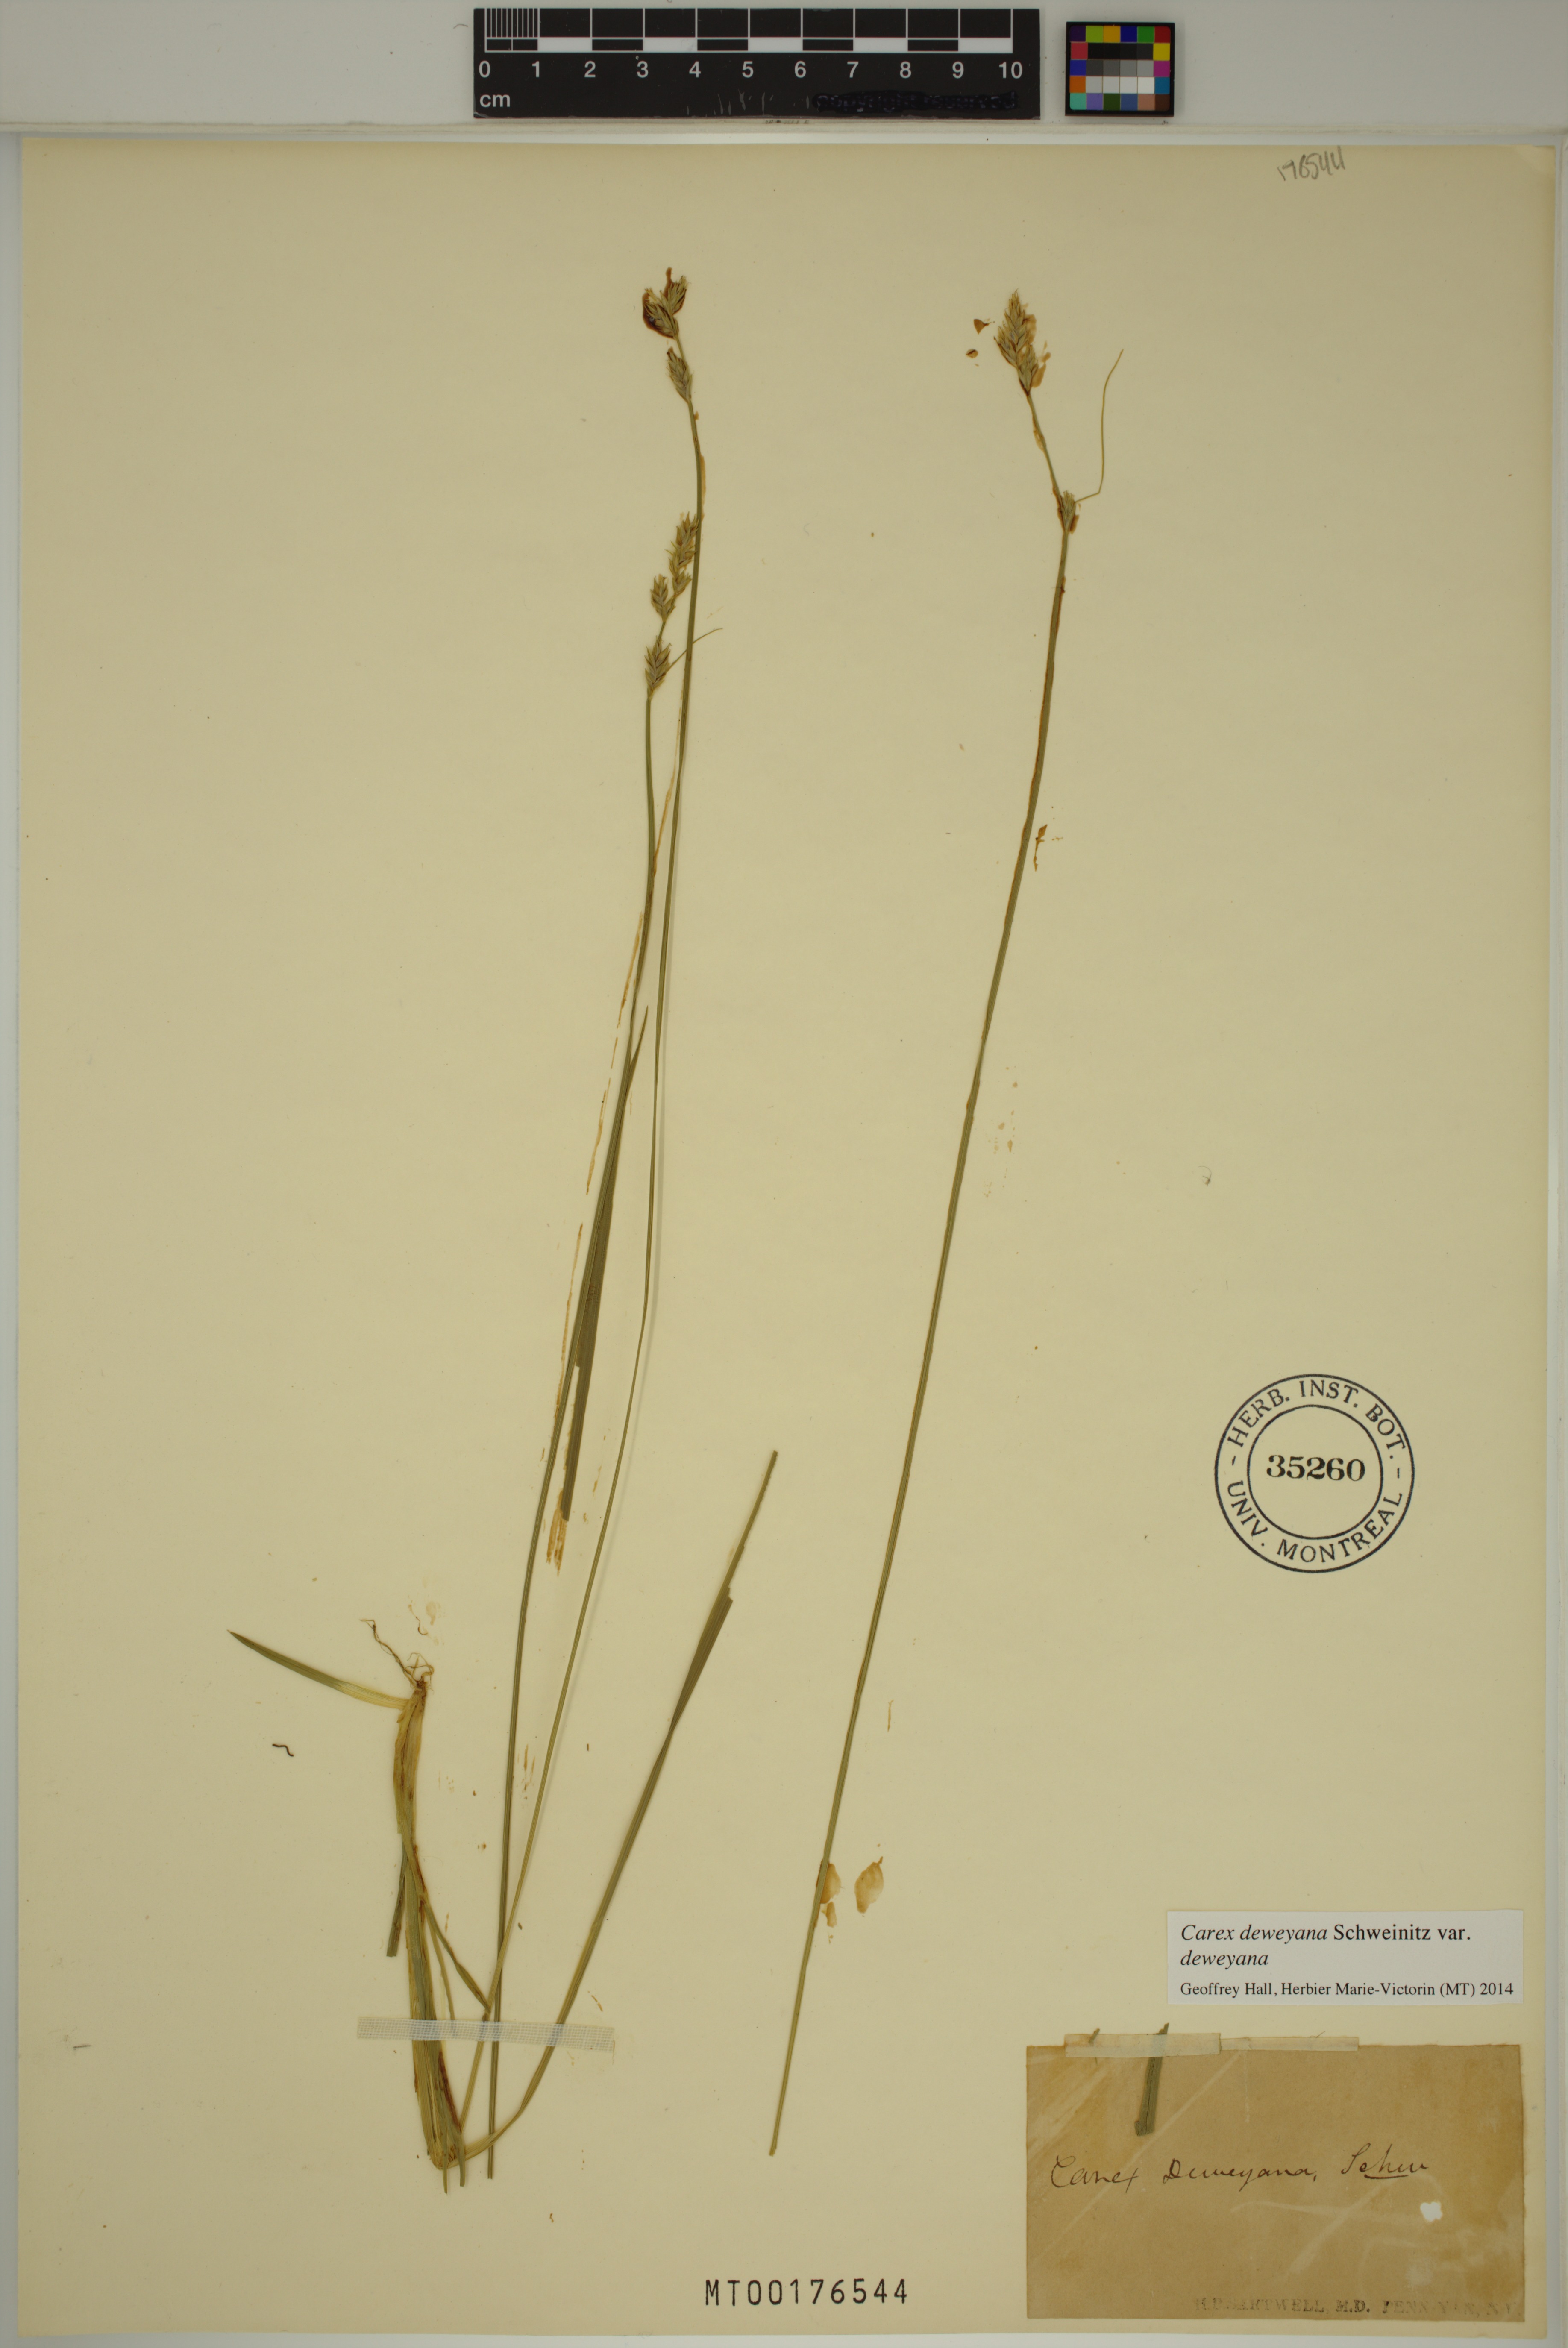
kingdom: Plantae
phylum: Tracheophyta
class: Liliopsida
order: Poales
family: Cyperaceae
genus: Carex
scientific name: Carex deweyana
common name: Dewey's sedge
